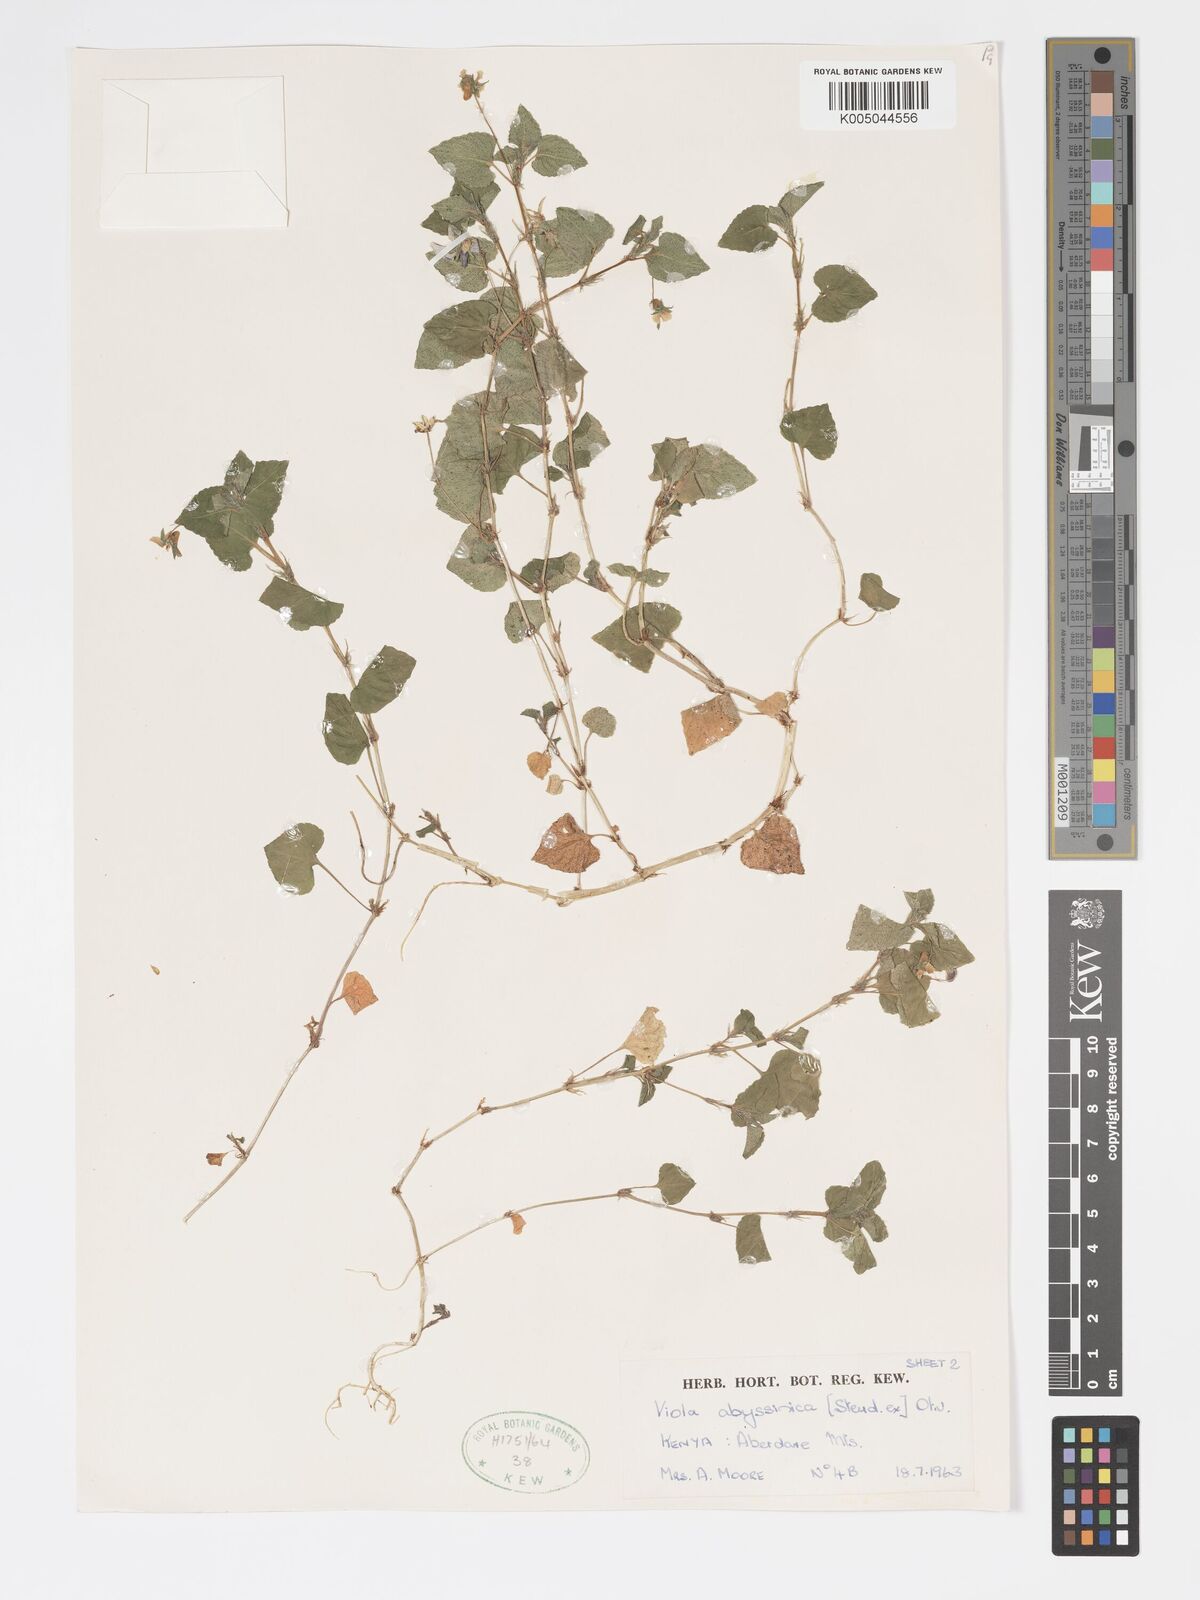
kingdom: Plantae
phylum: Tracheophyta
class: Magnoliopsida
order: Malpighiales
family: Violaceae
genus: Viola
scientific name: Viola abyssinica
